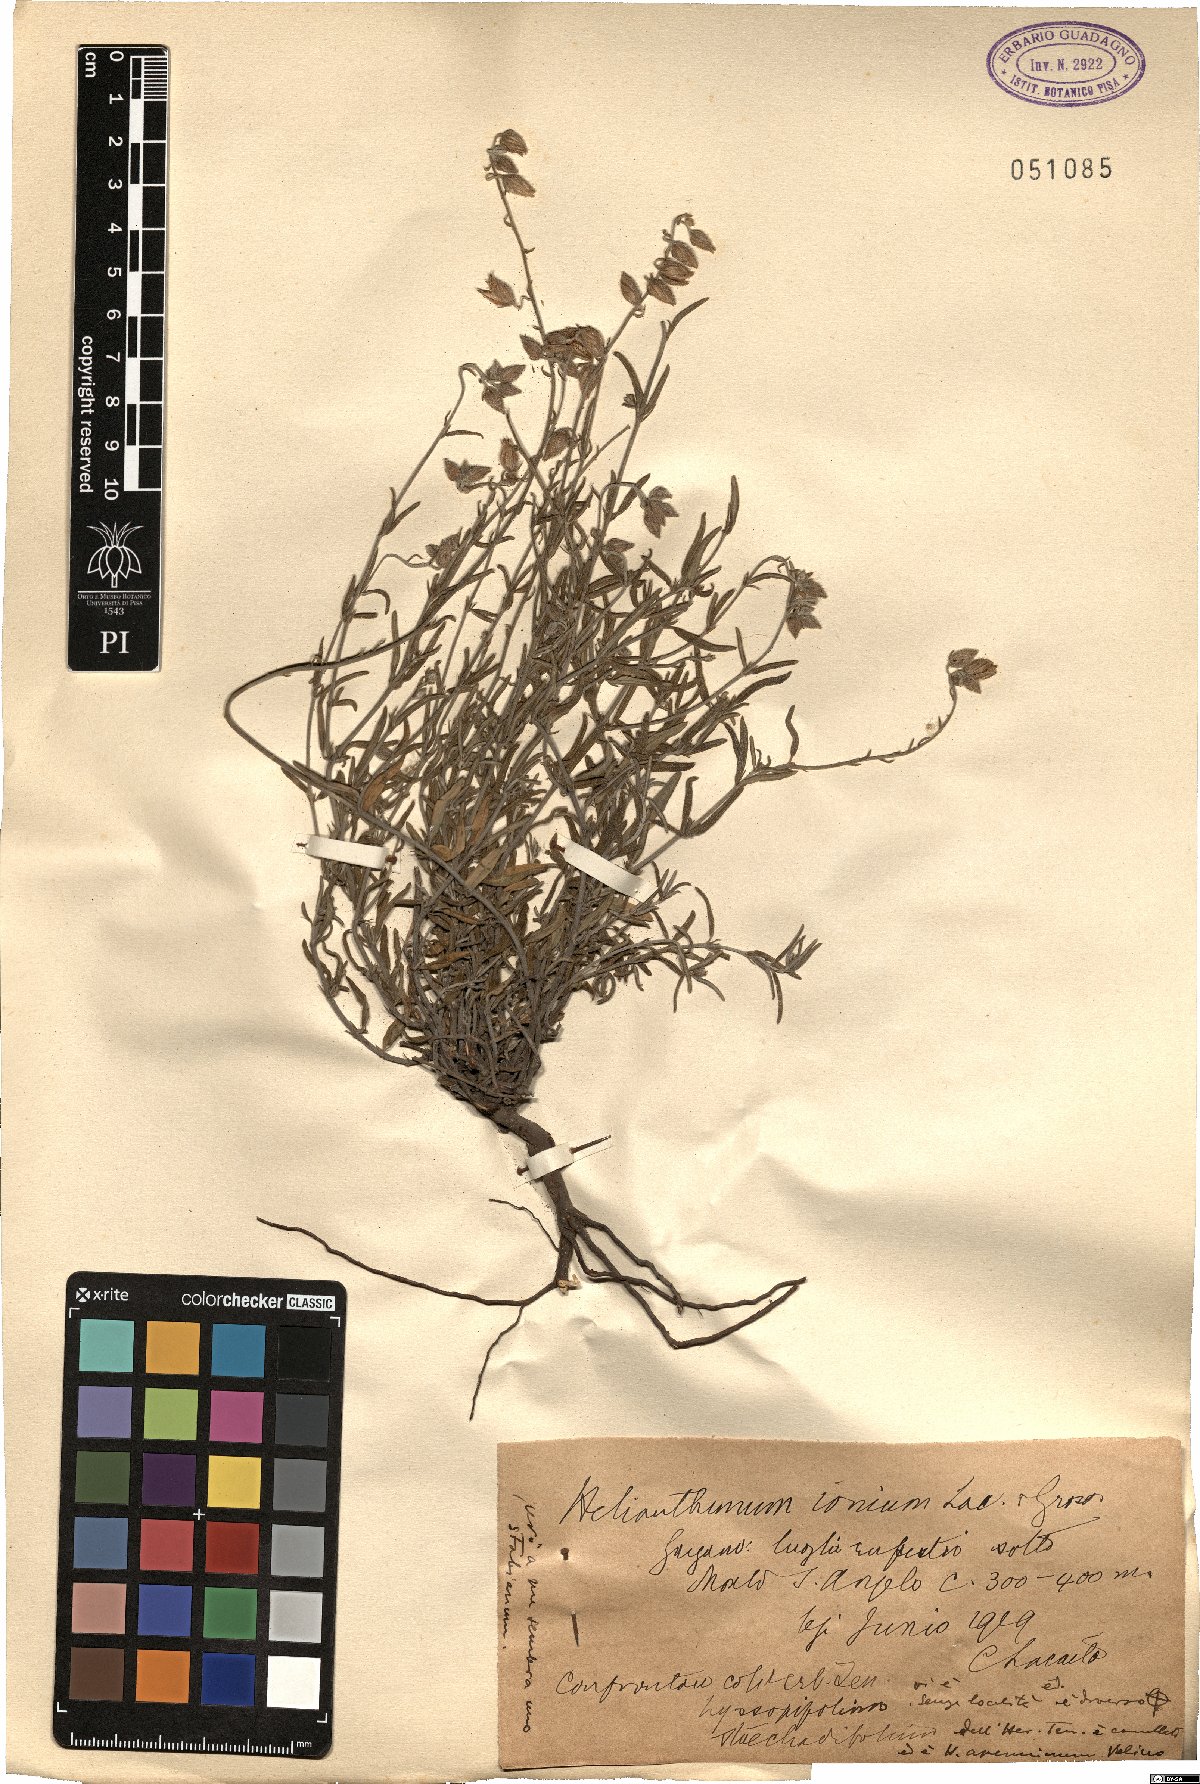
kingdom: Plantae
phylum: Tracheophyta
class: Magnoliopsida
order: Malvales
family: Cistaceae
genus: Helianthemum
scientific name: Helianthemum leptophyllum
